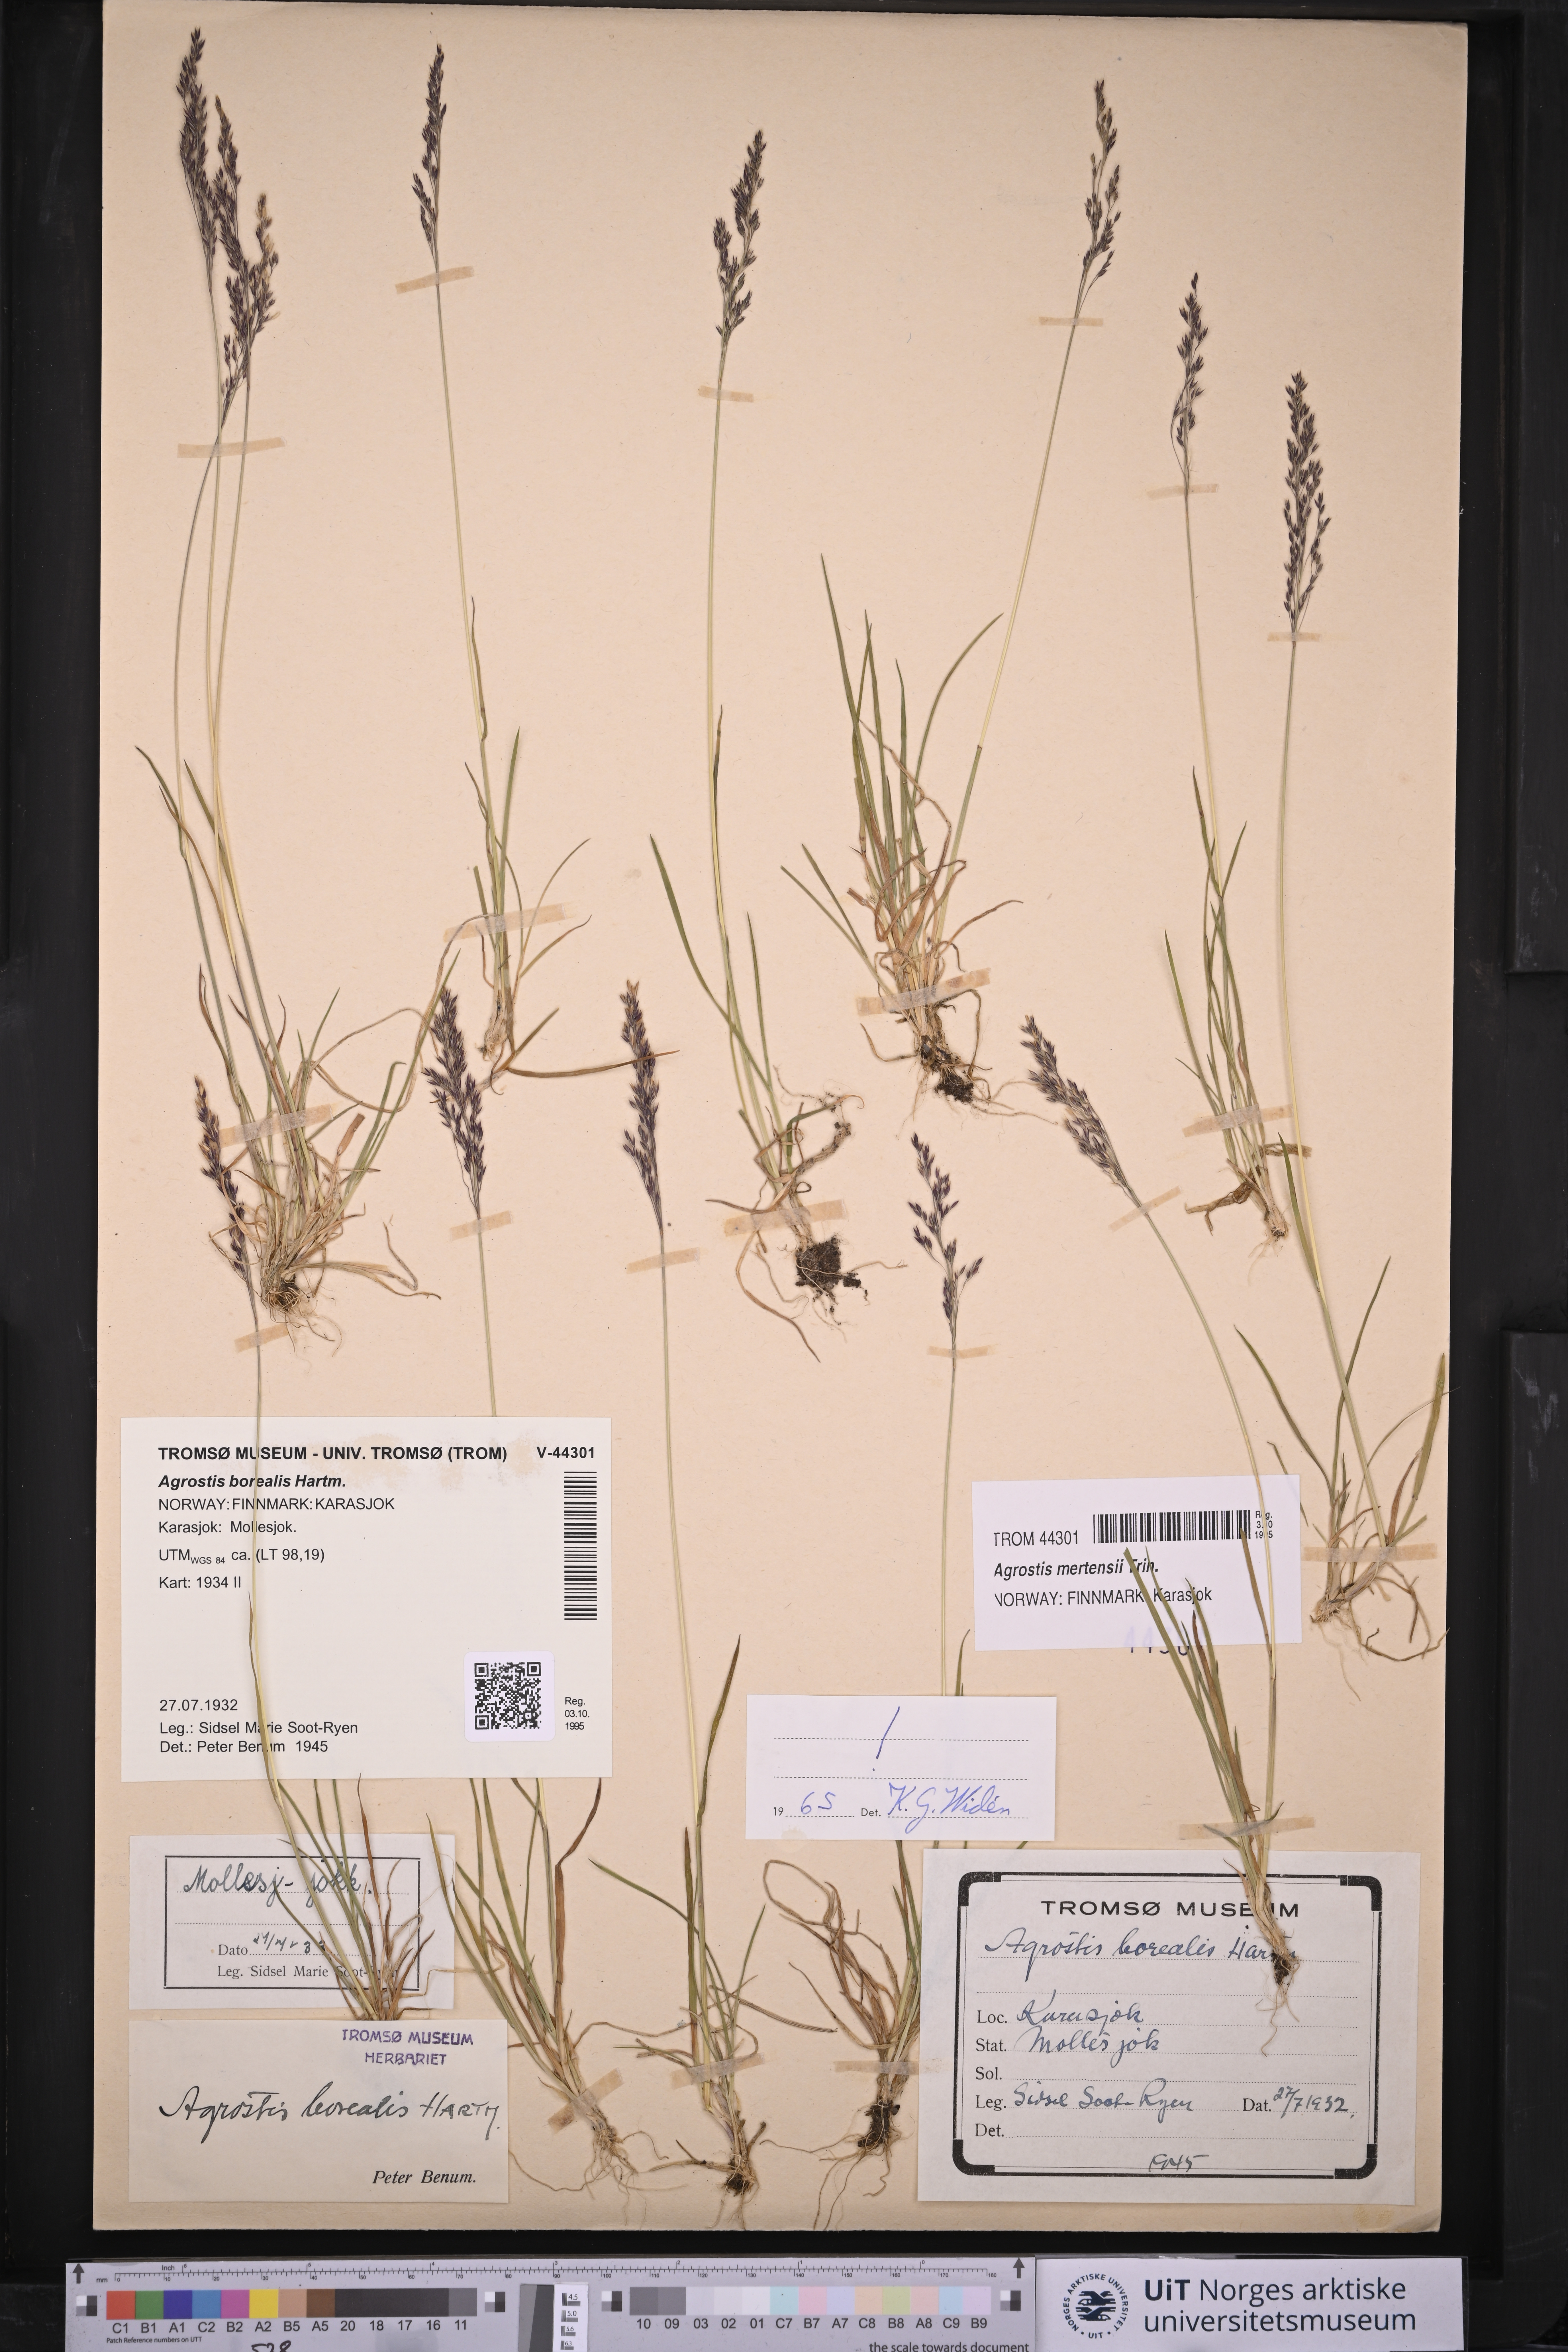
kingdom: Plantae
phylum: Tracheophyta
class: Liliopsida
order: Poales
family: Poaceae
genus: Agrostis
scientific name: Agrostis mertensii
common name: Northern bent
